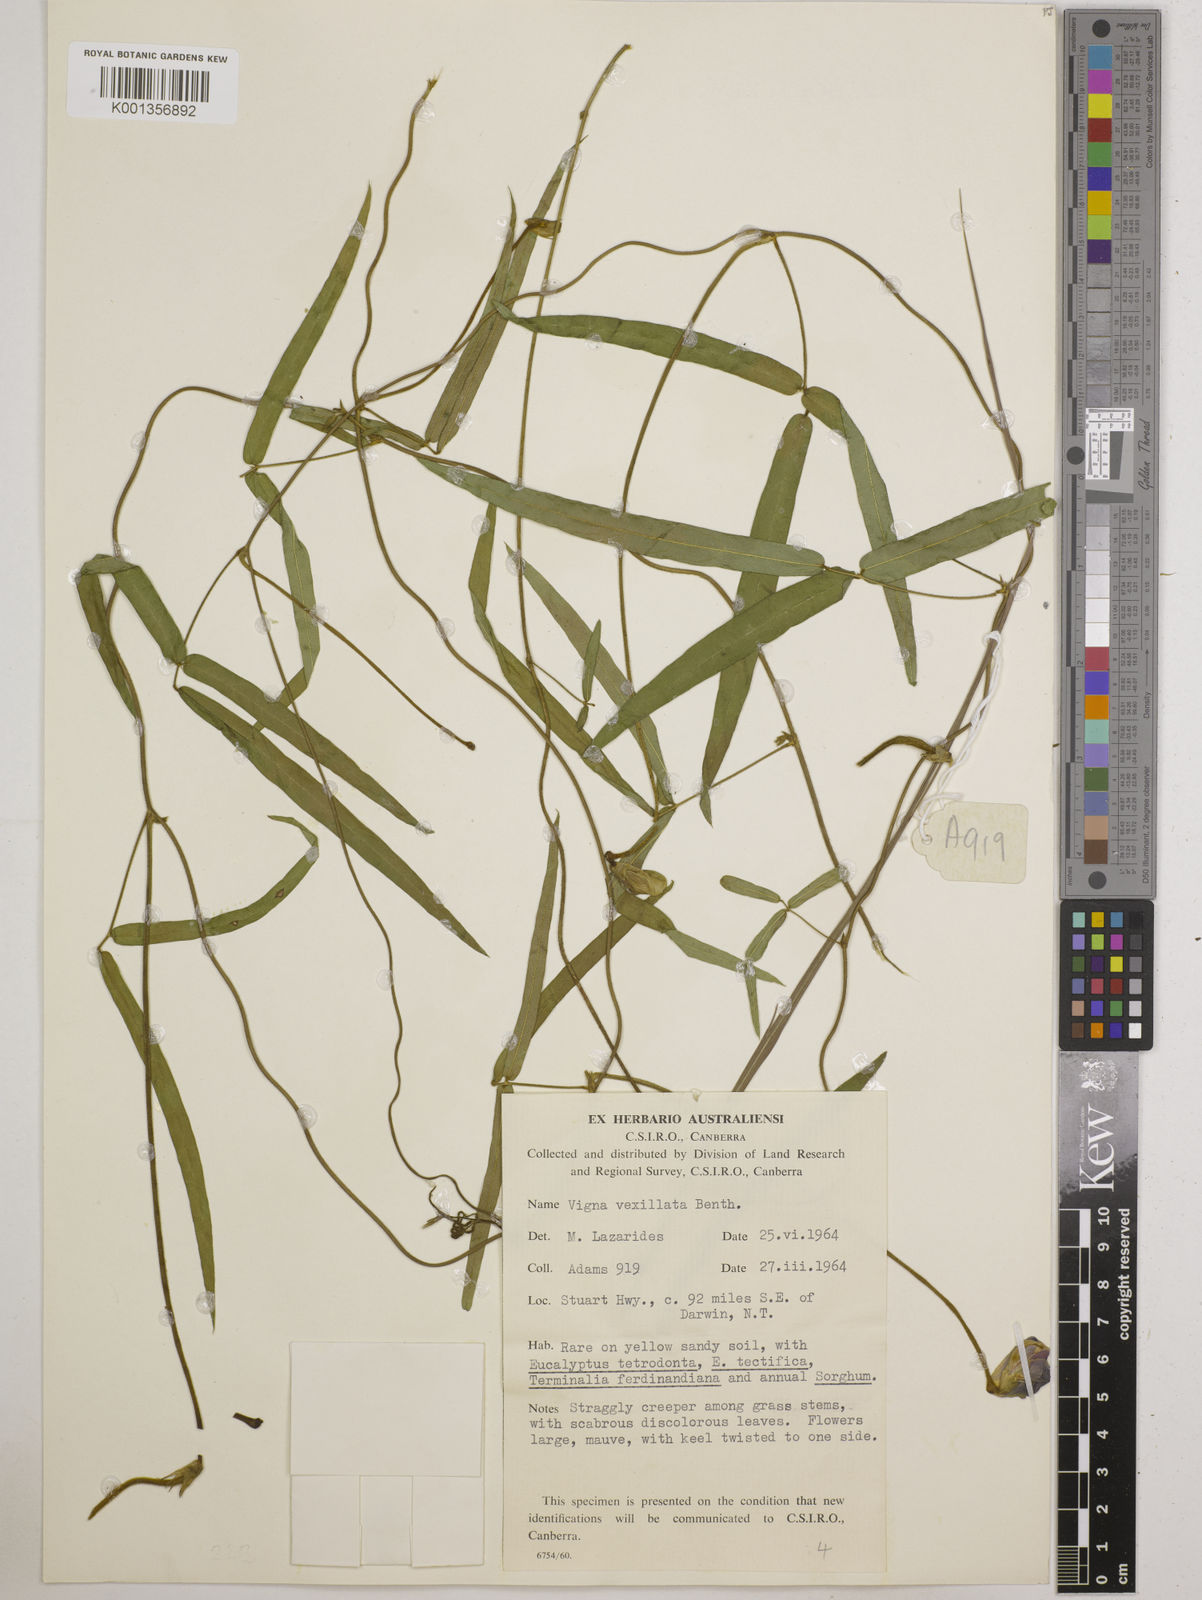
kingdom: Plantae
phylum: Tracheophyta
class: Magnoliopsida
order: Fabales
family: Fabaceae
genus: Vigna
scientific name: Vigna vexillata
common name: Zombi pea
